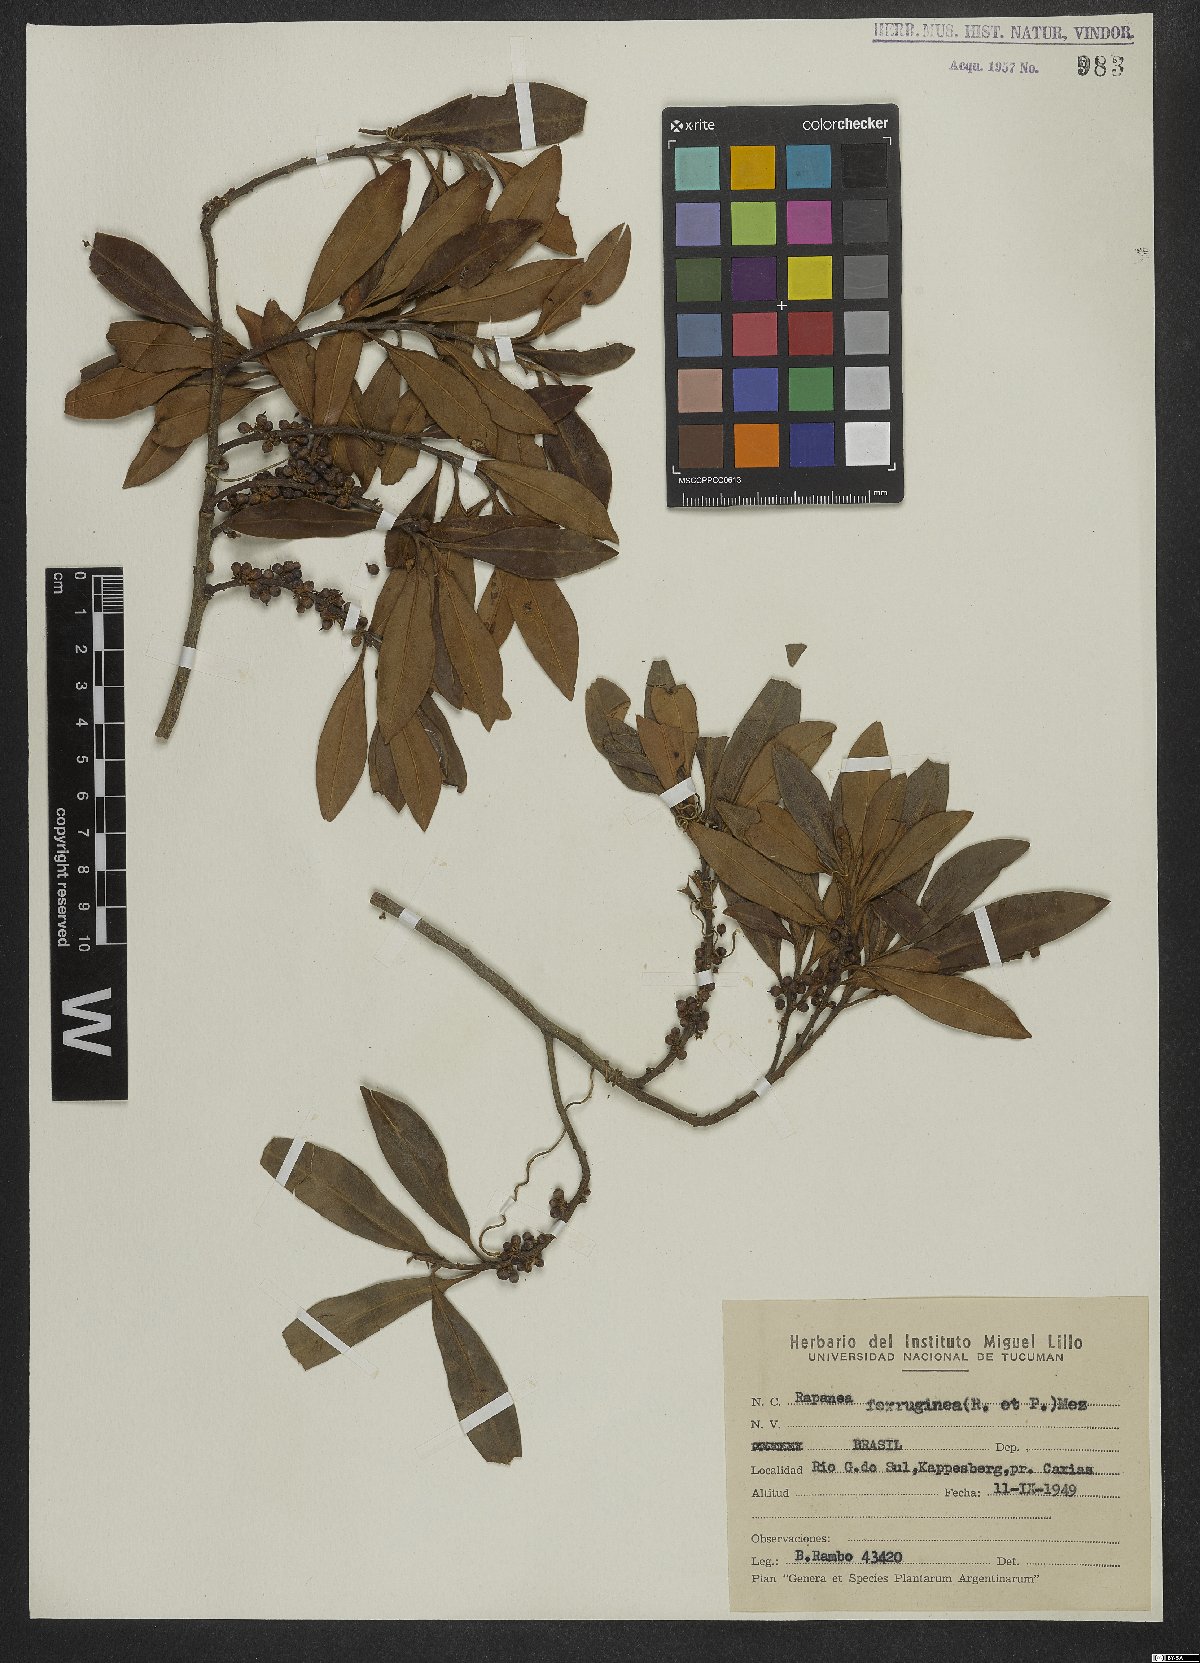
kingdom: Plantae
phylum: Tracheophyta
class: Magnoliopsida
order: Ericales
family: Primulaceae
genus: Myrsine
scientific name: Myrsine coriacea
